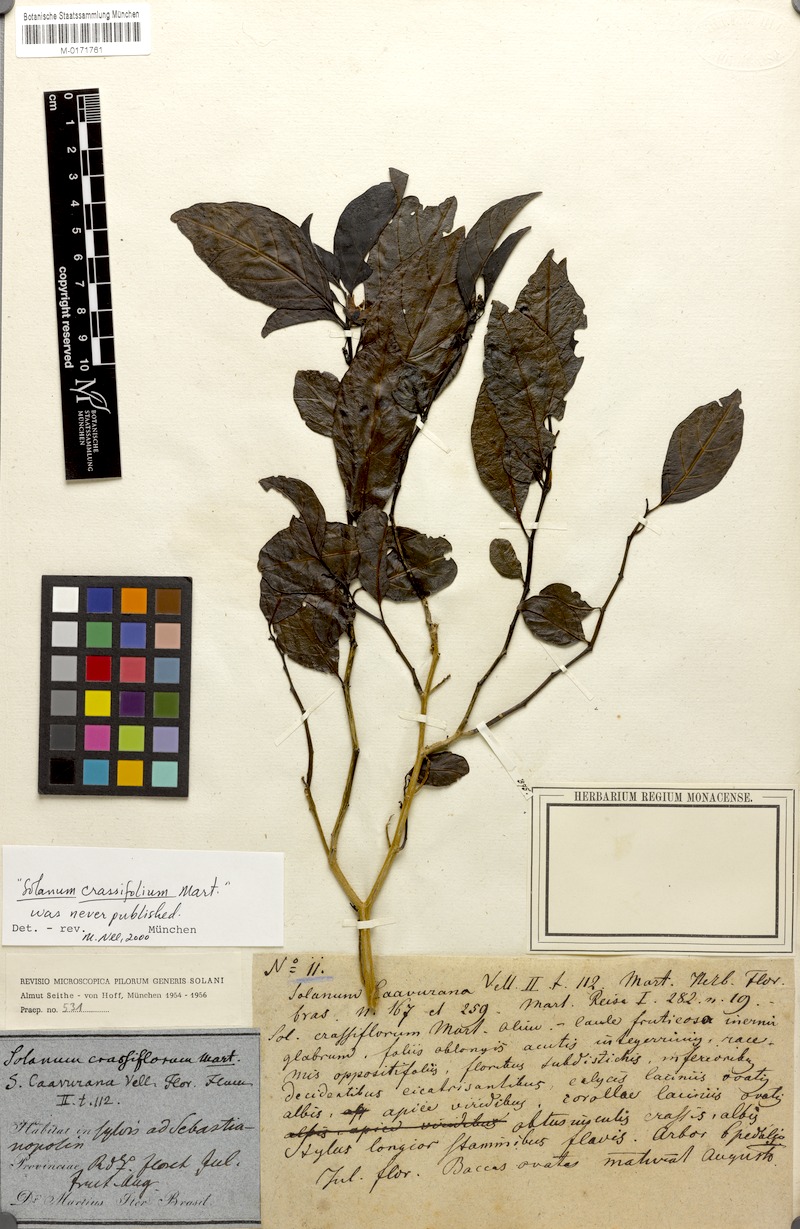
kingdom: Plantae
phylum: Tracheophyta
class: Magnoliopsida
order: Solanales
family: Solanaceae
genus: Solanum
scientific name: Solanum caavurana
